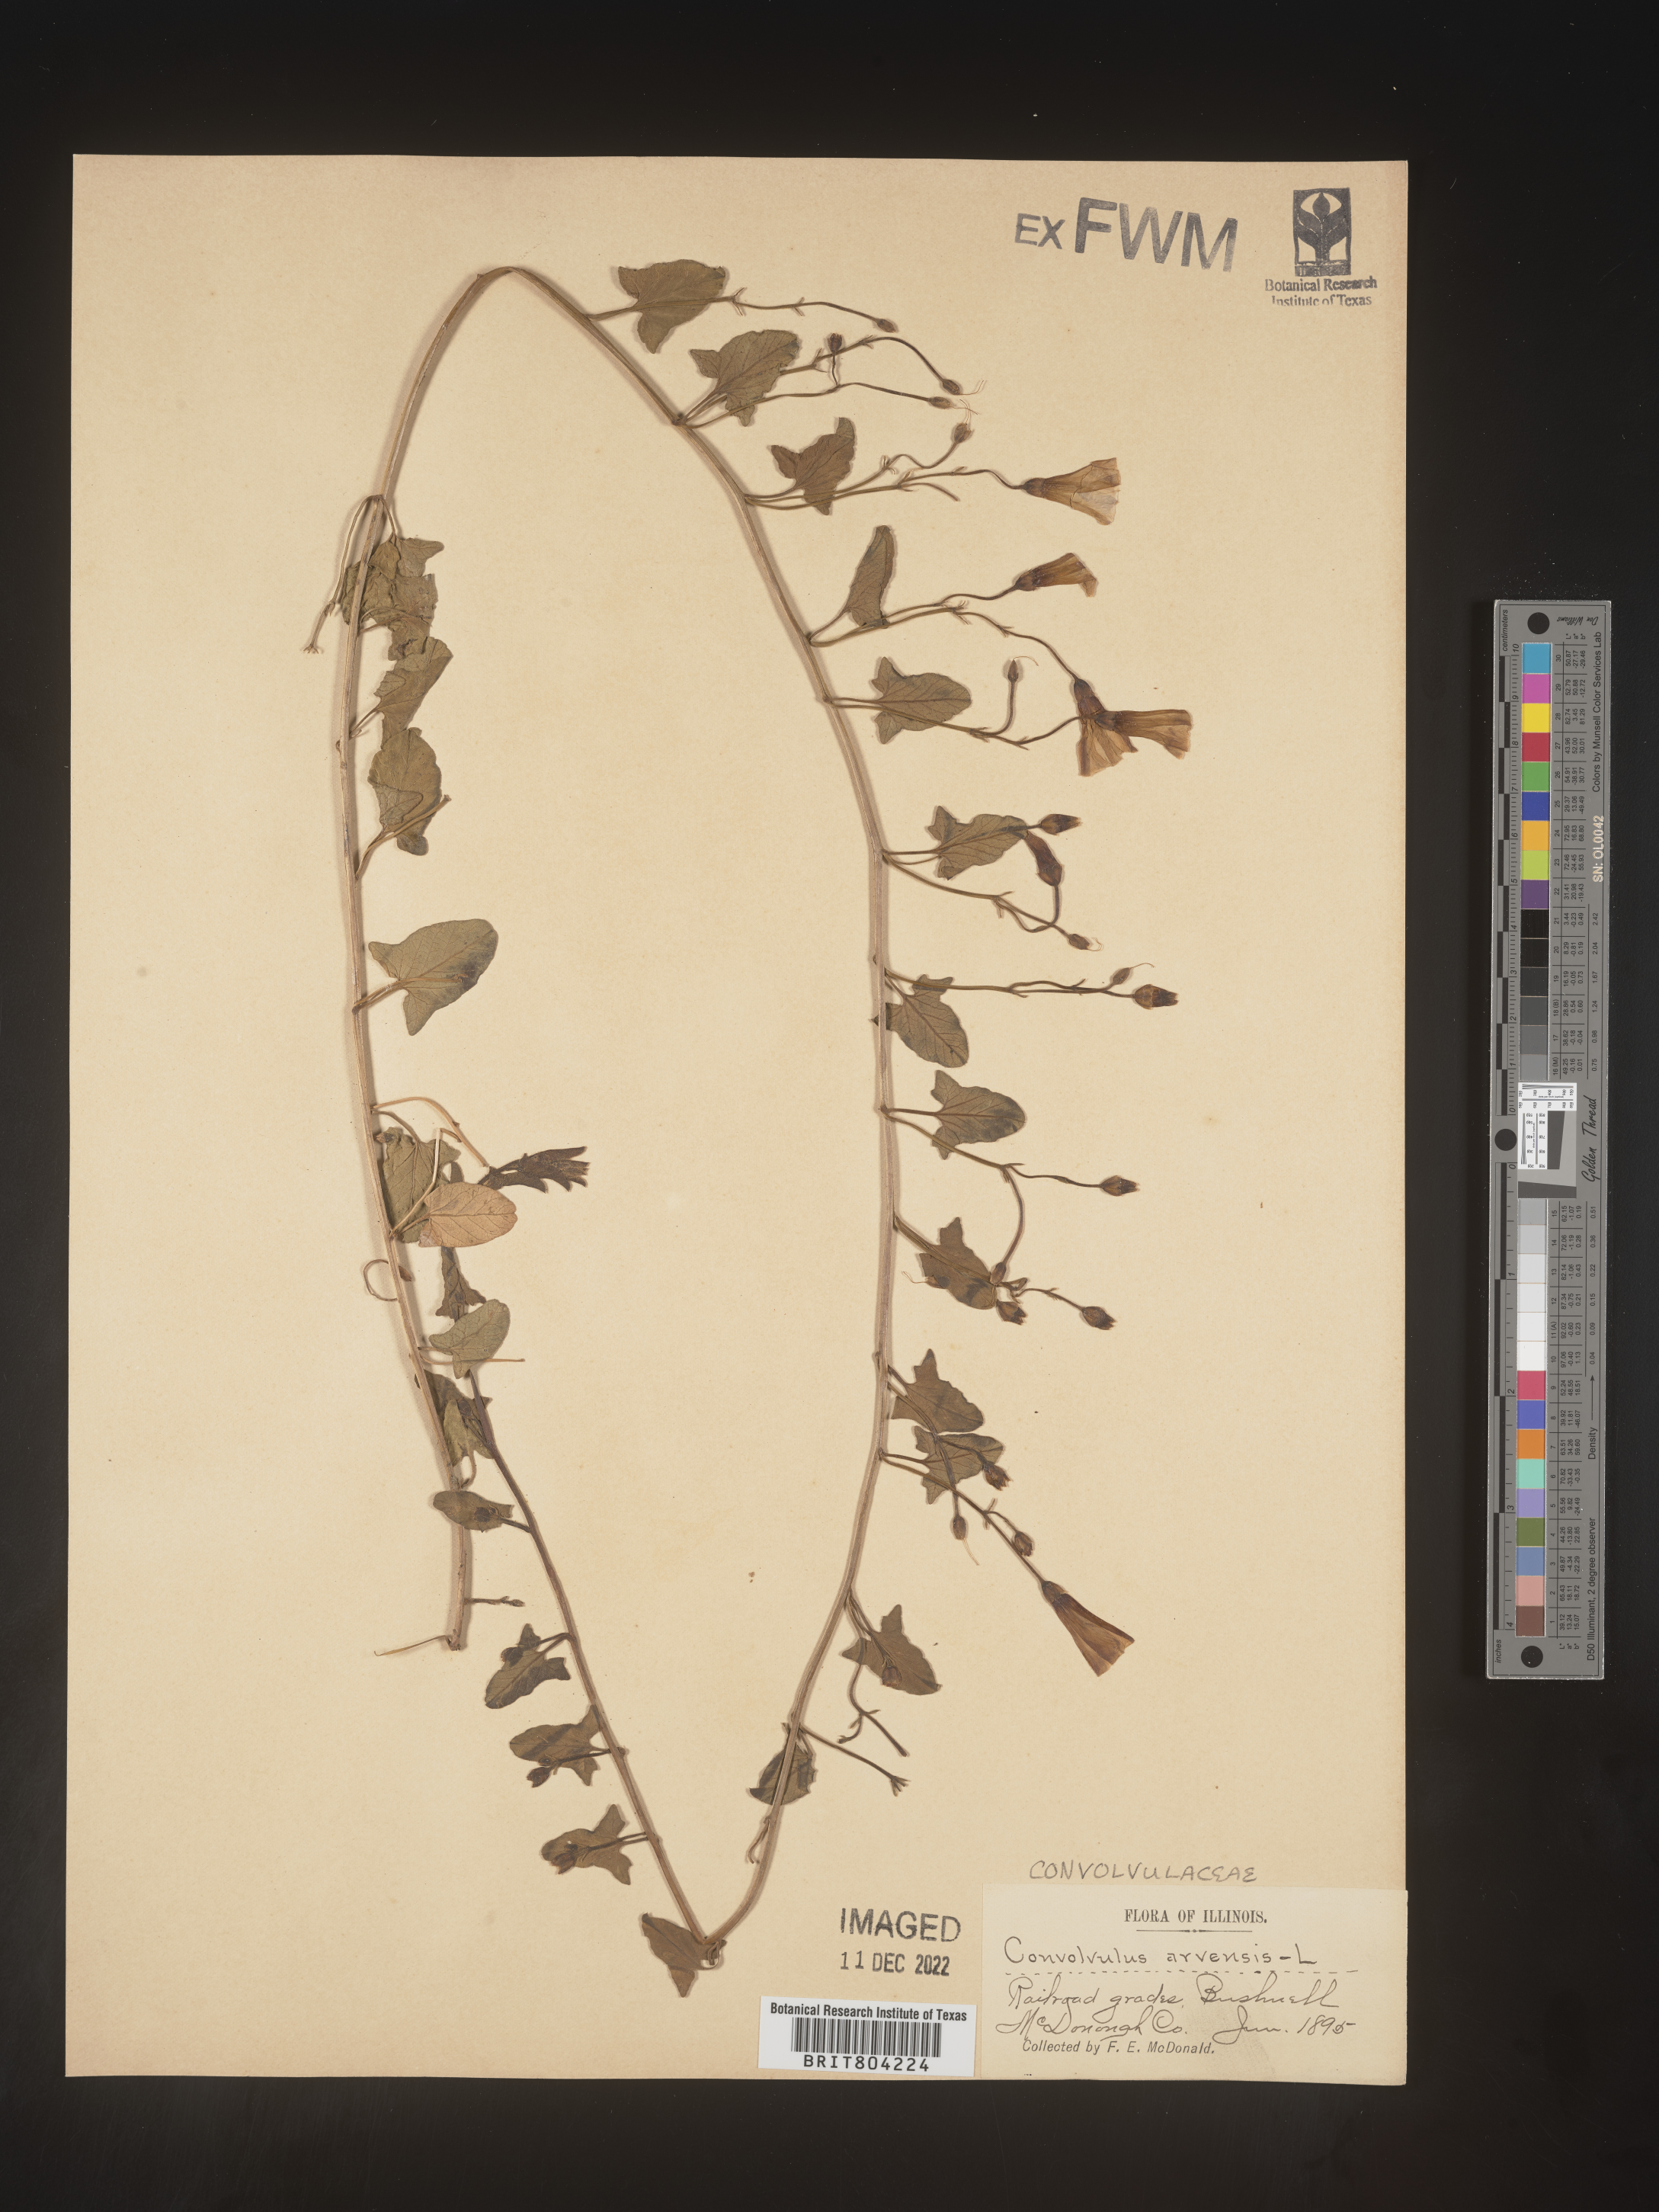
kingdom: Plantae
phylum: Tracheophyta
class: Magnoliopsida
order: Solanales
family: Convolvulaceae
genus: Convolvulus
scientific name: Convolvulus arvensis
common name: Field bindweed
